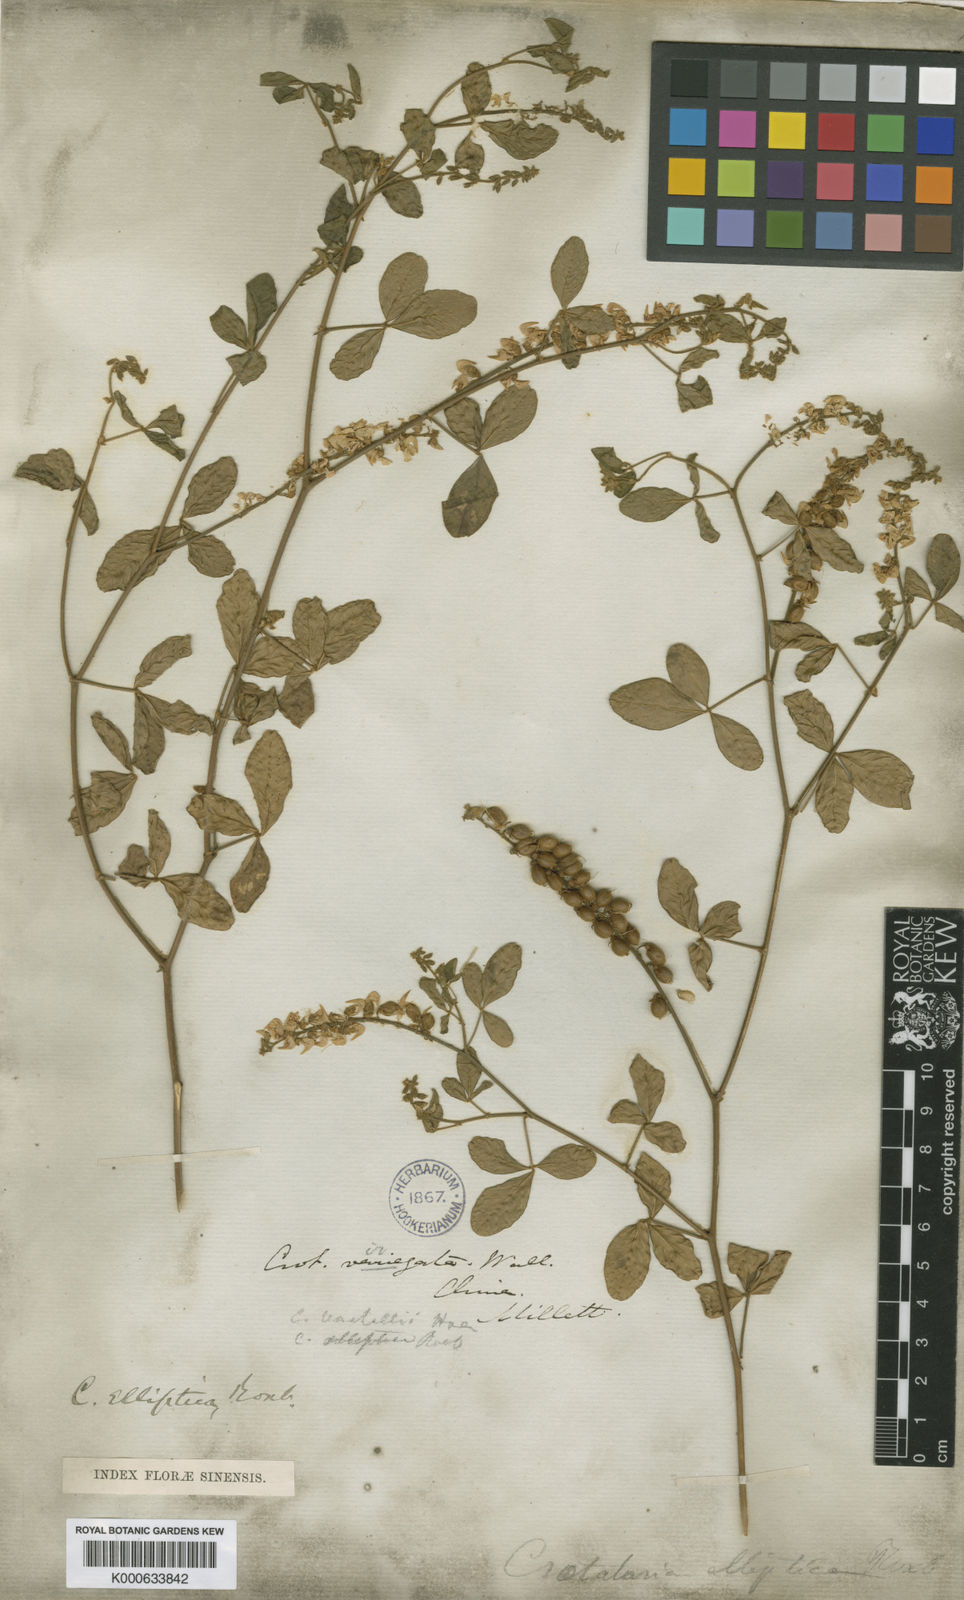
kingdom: Plantae
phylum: Tracheophyta
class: Magnoliopsida
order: Fabales
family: Fabaceae
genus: Crotalaria
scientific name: Crotalaria uncinella
